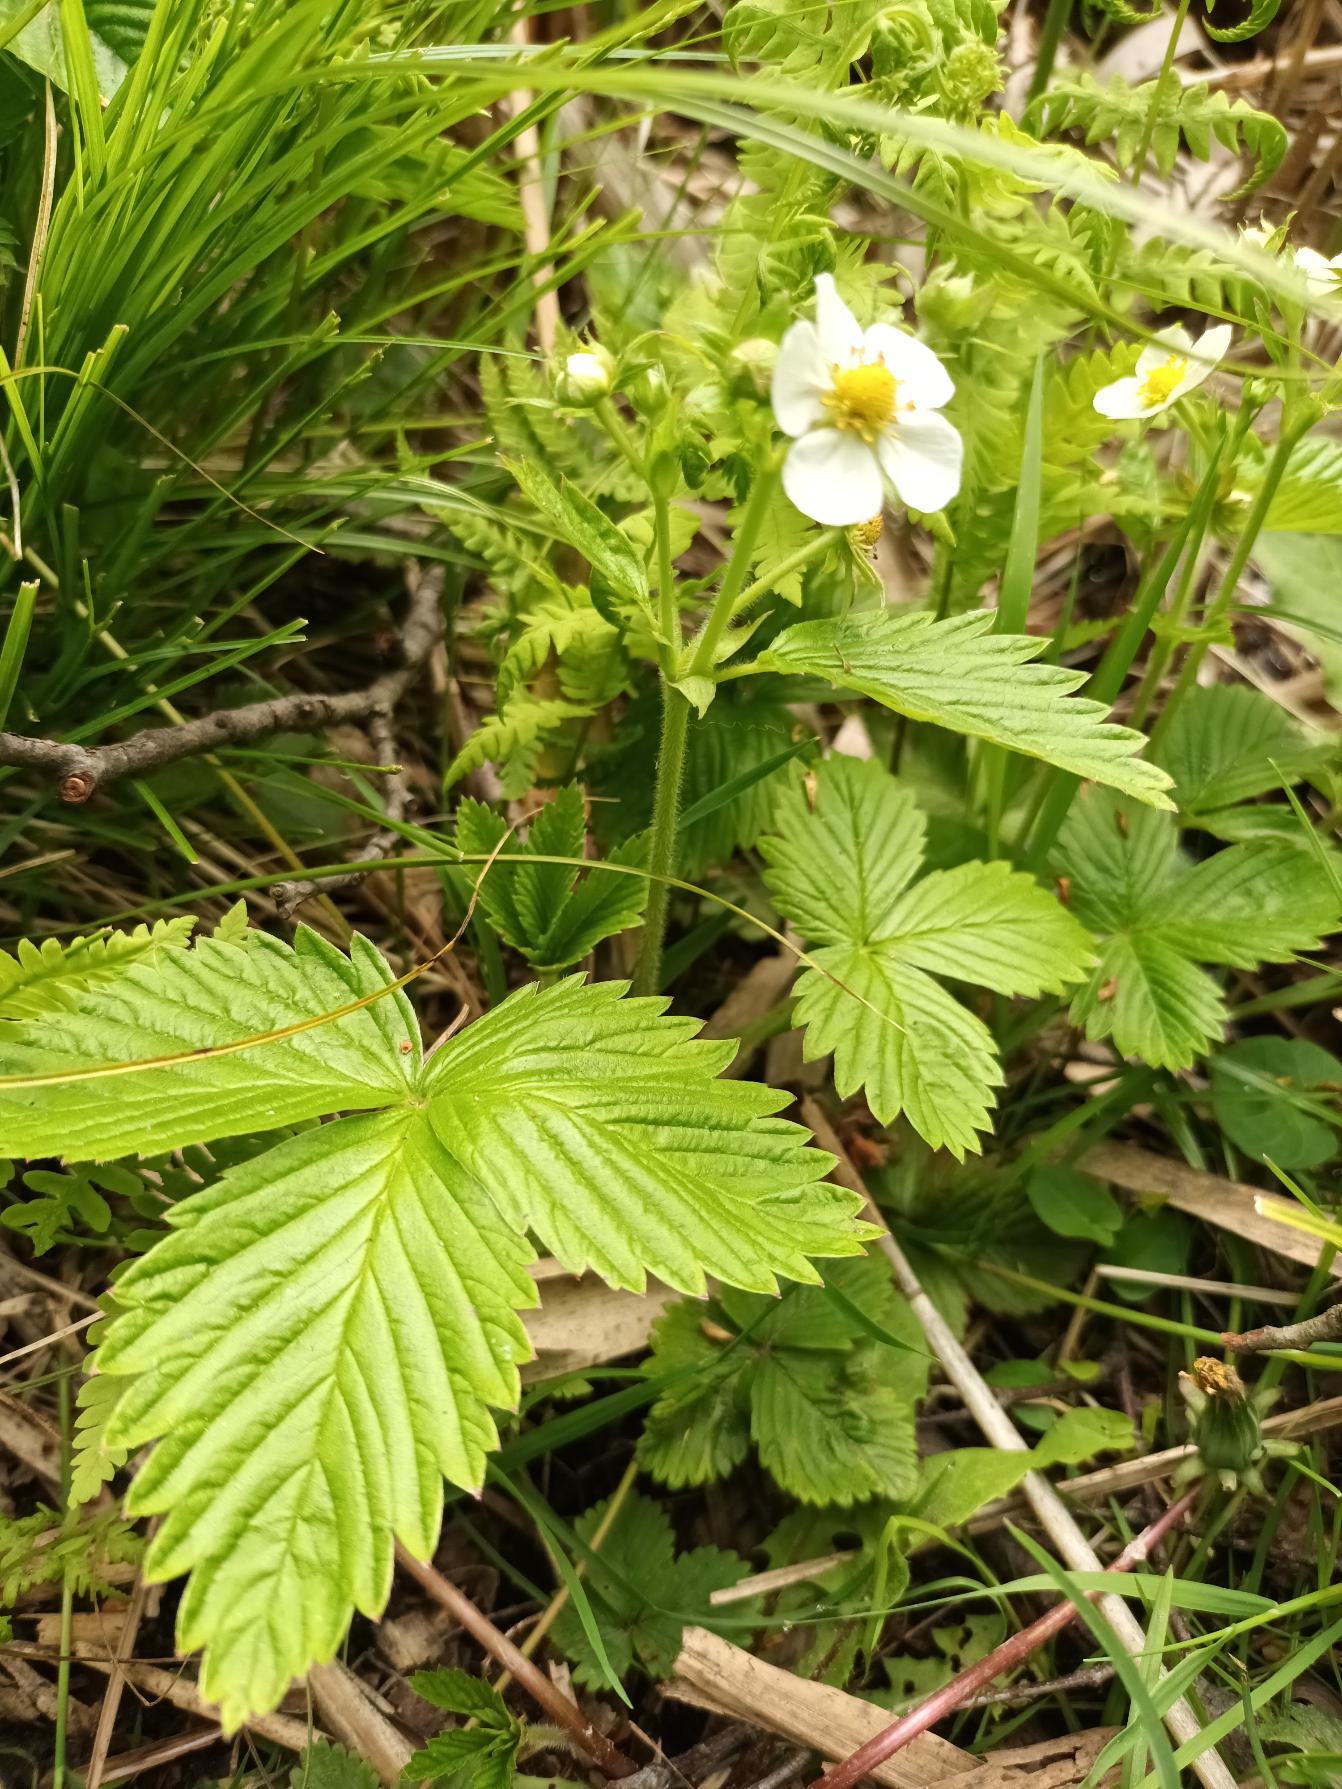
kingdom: Plantae
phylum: Tracheophyta
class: Magnoliopsida
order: Rosales
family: Rosaceae
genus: Fragaria
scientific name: Fragaria vesca
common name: Skov-jordbær
